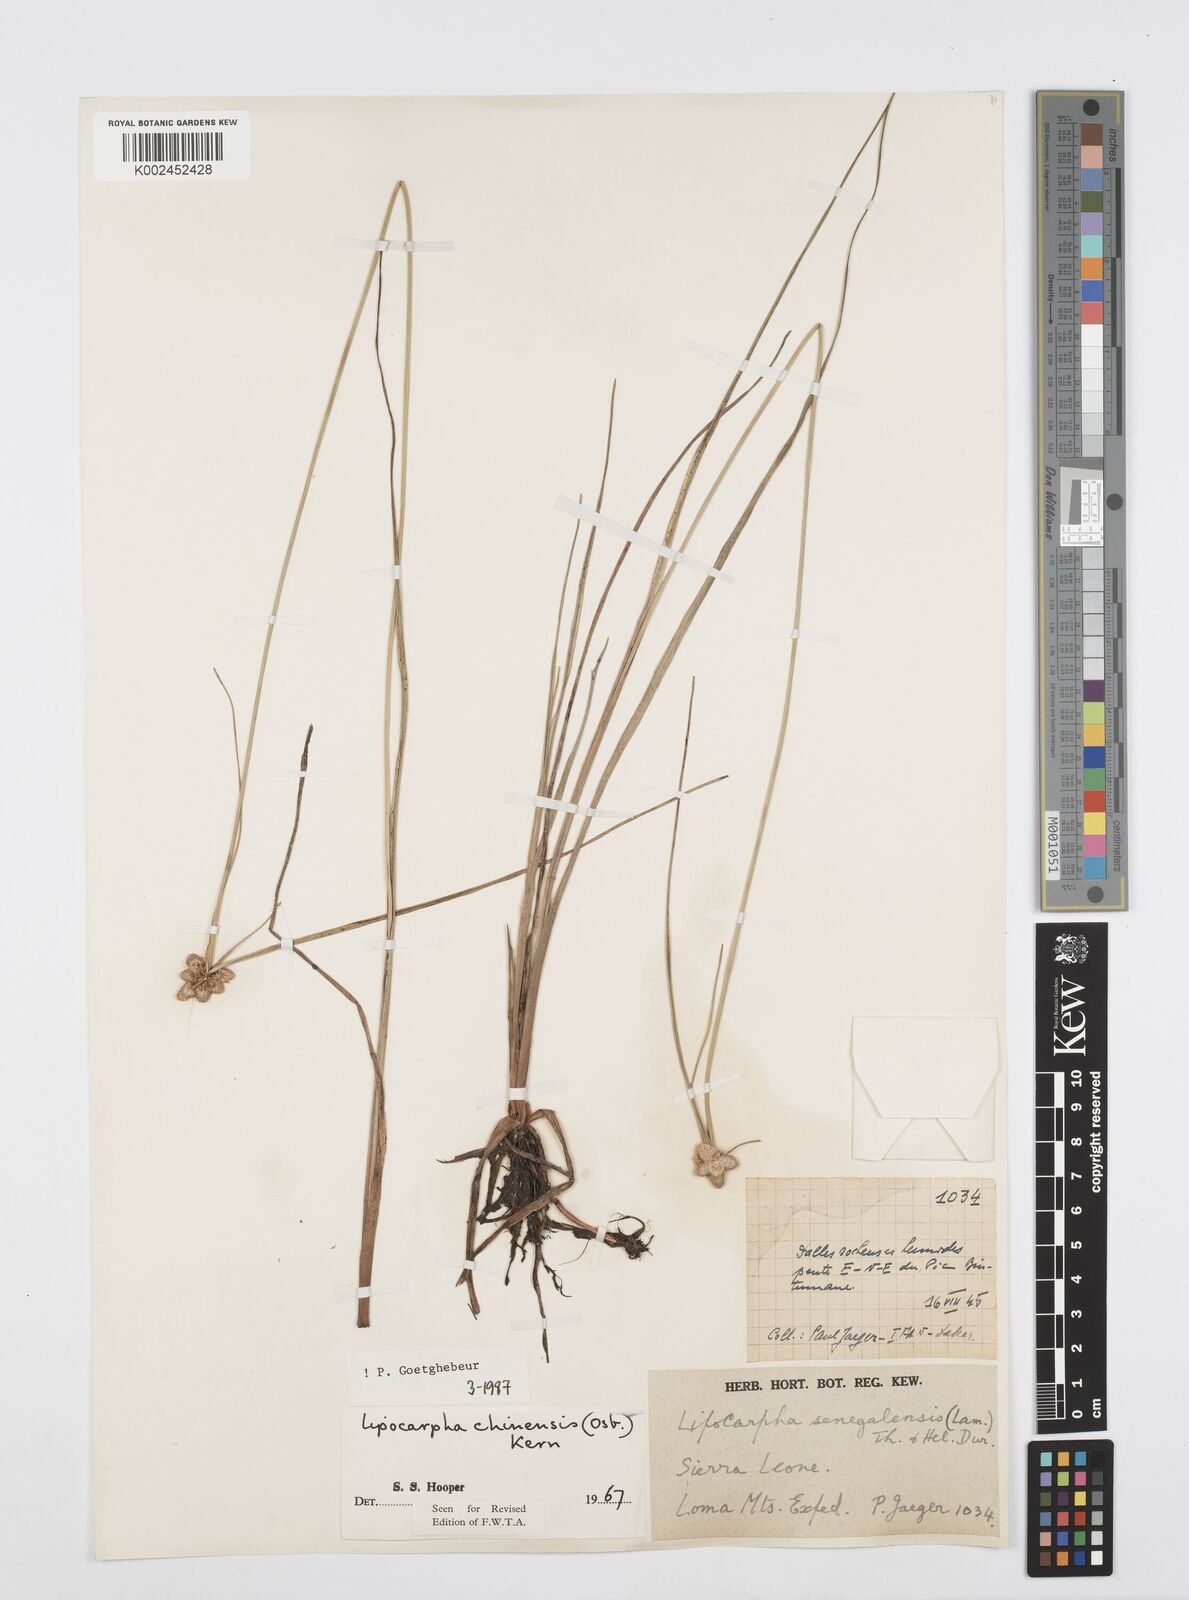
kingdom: Plantae
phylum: Tracheophyta
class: Liliopsida
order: Poales
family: Cyperaceae
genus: Cyperus
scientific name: Cyperus albescens
